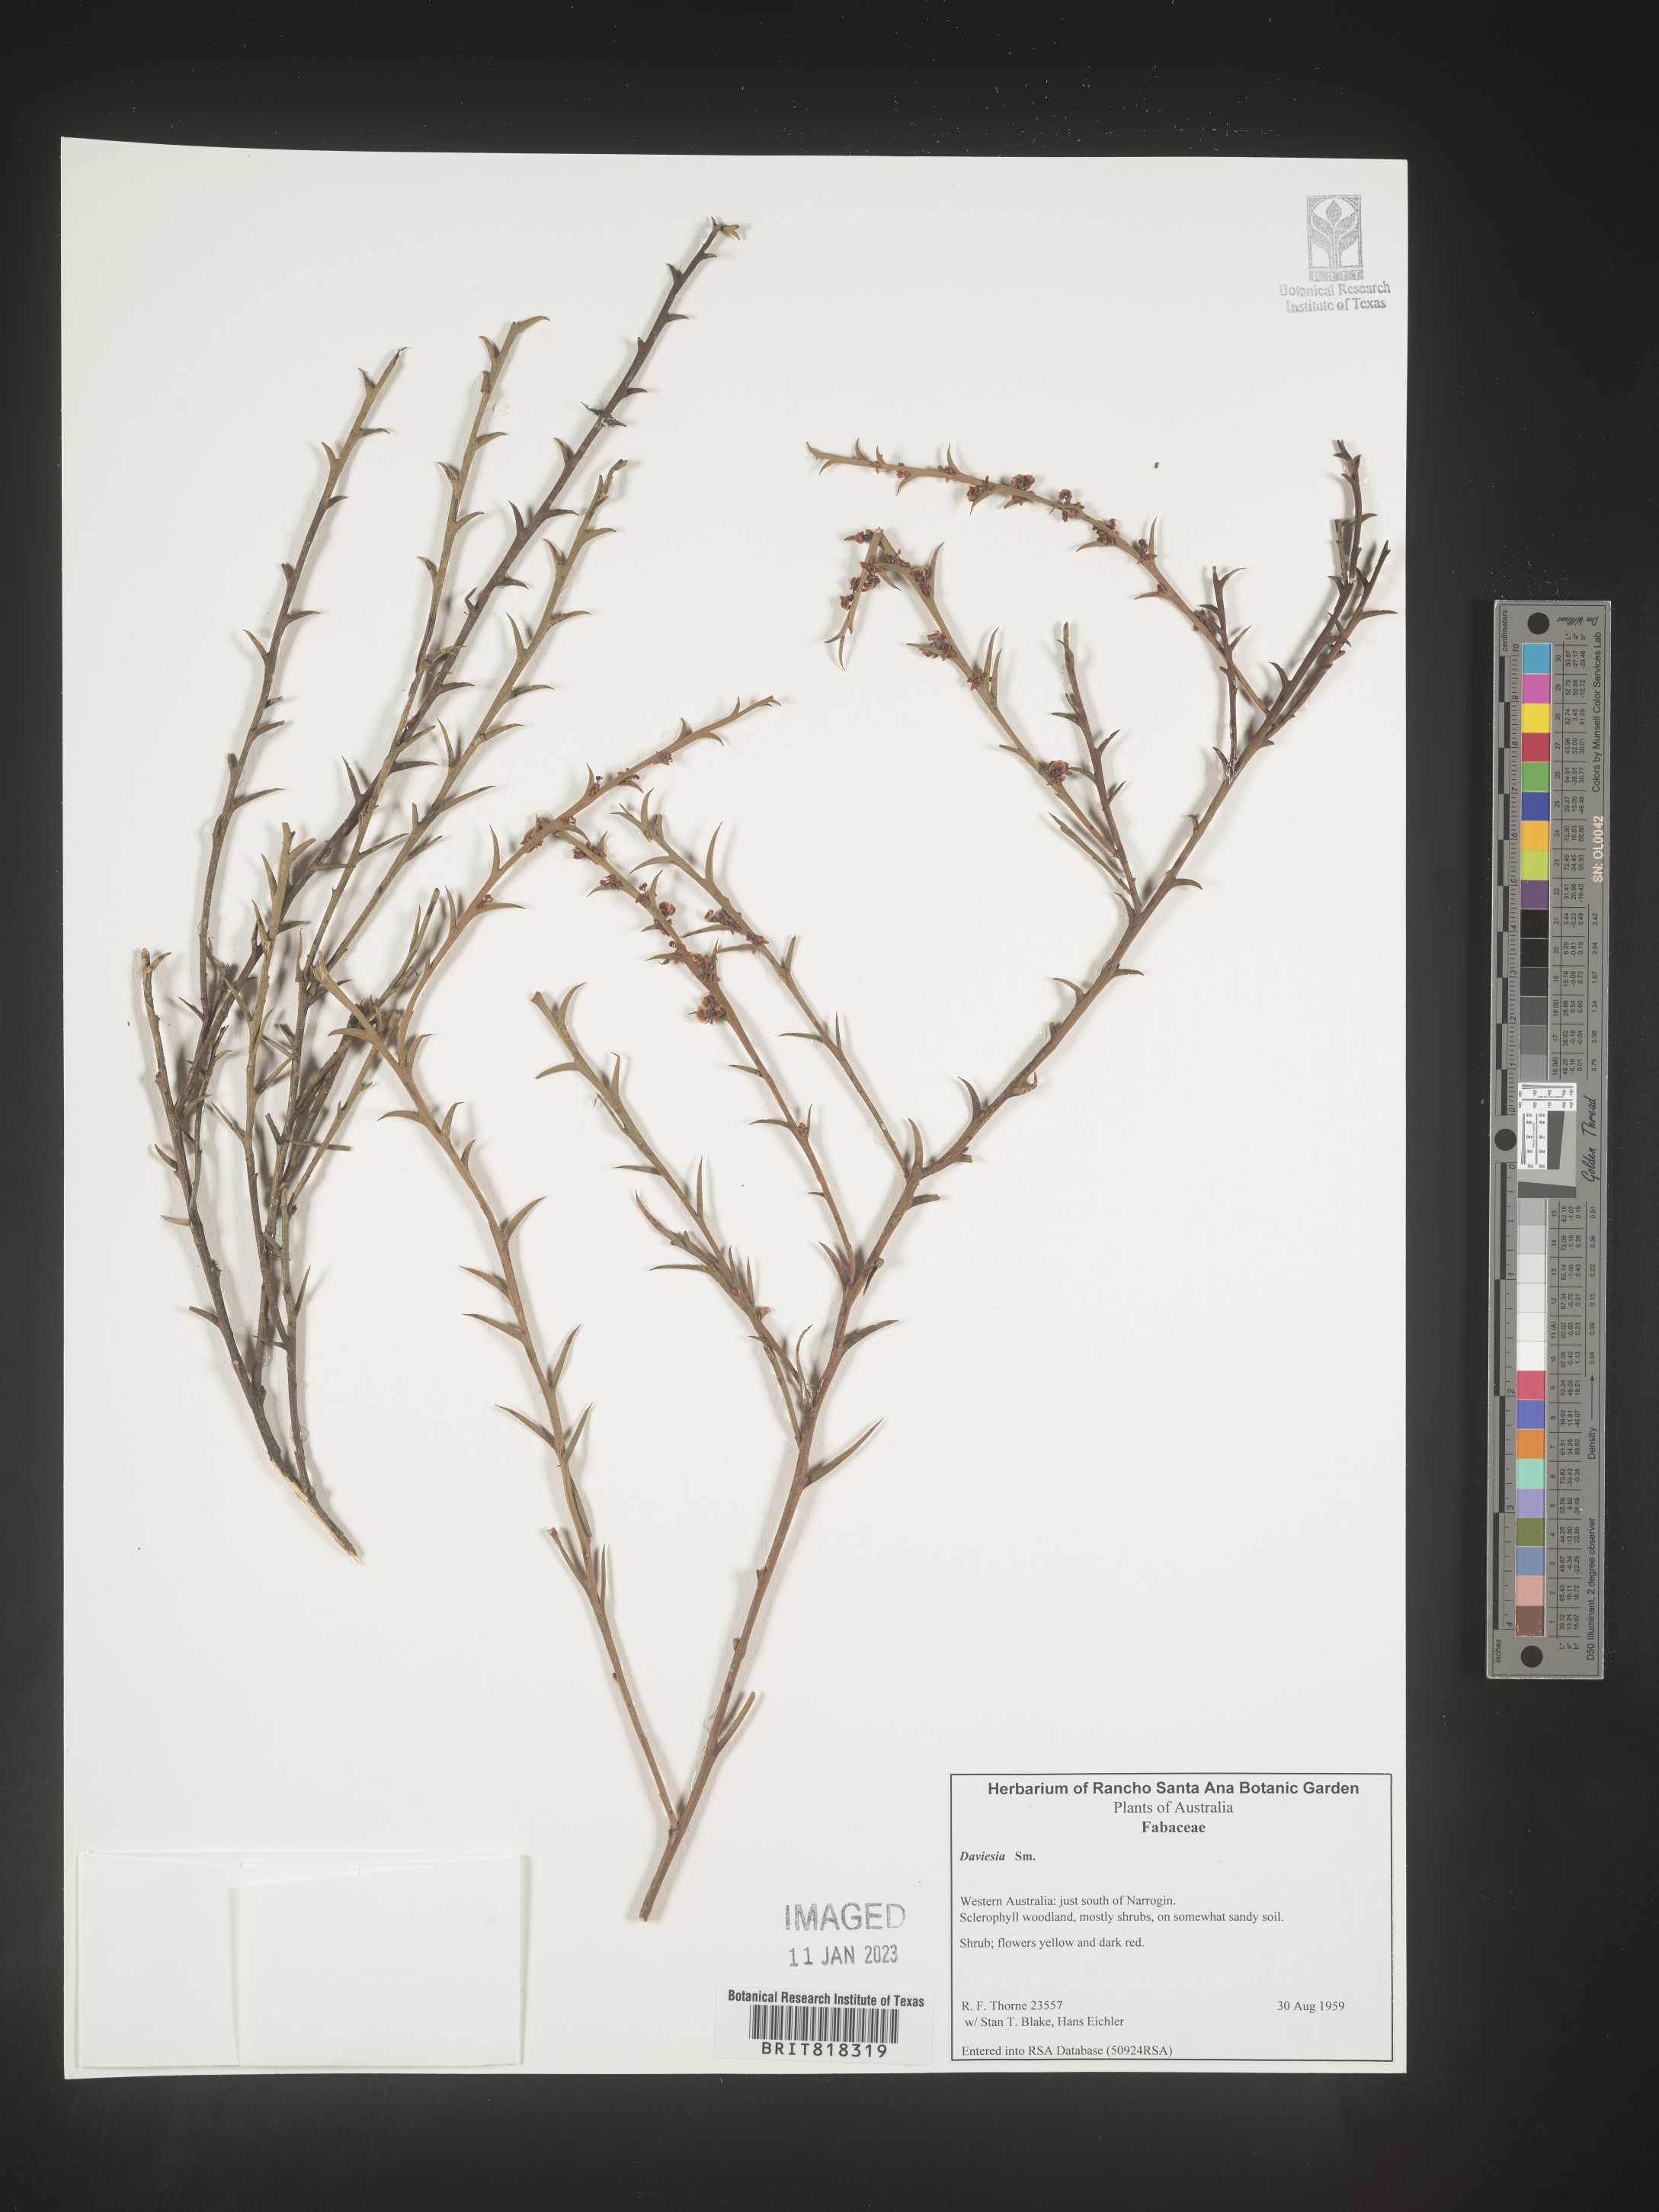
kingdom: Plantae
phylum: Tracheophyta
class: Magnoliopsida
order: Fabales
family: Fabaceae
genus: Daviesia
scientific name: Daviesia
